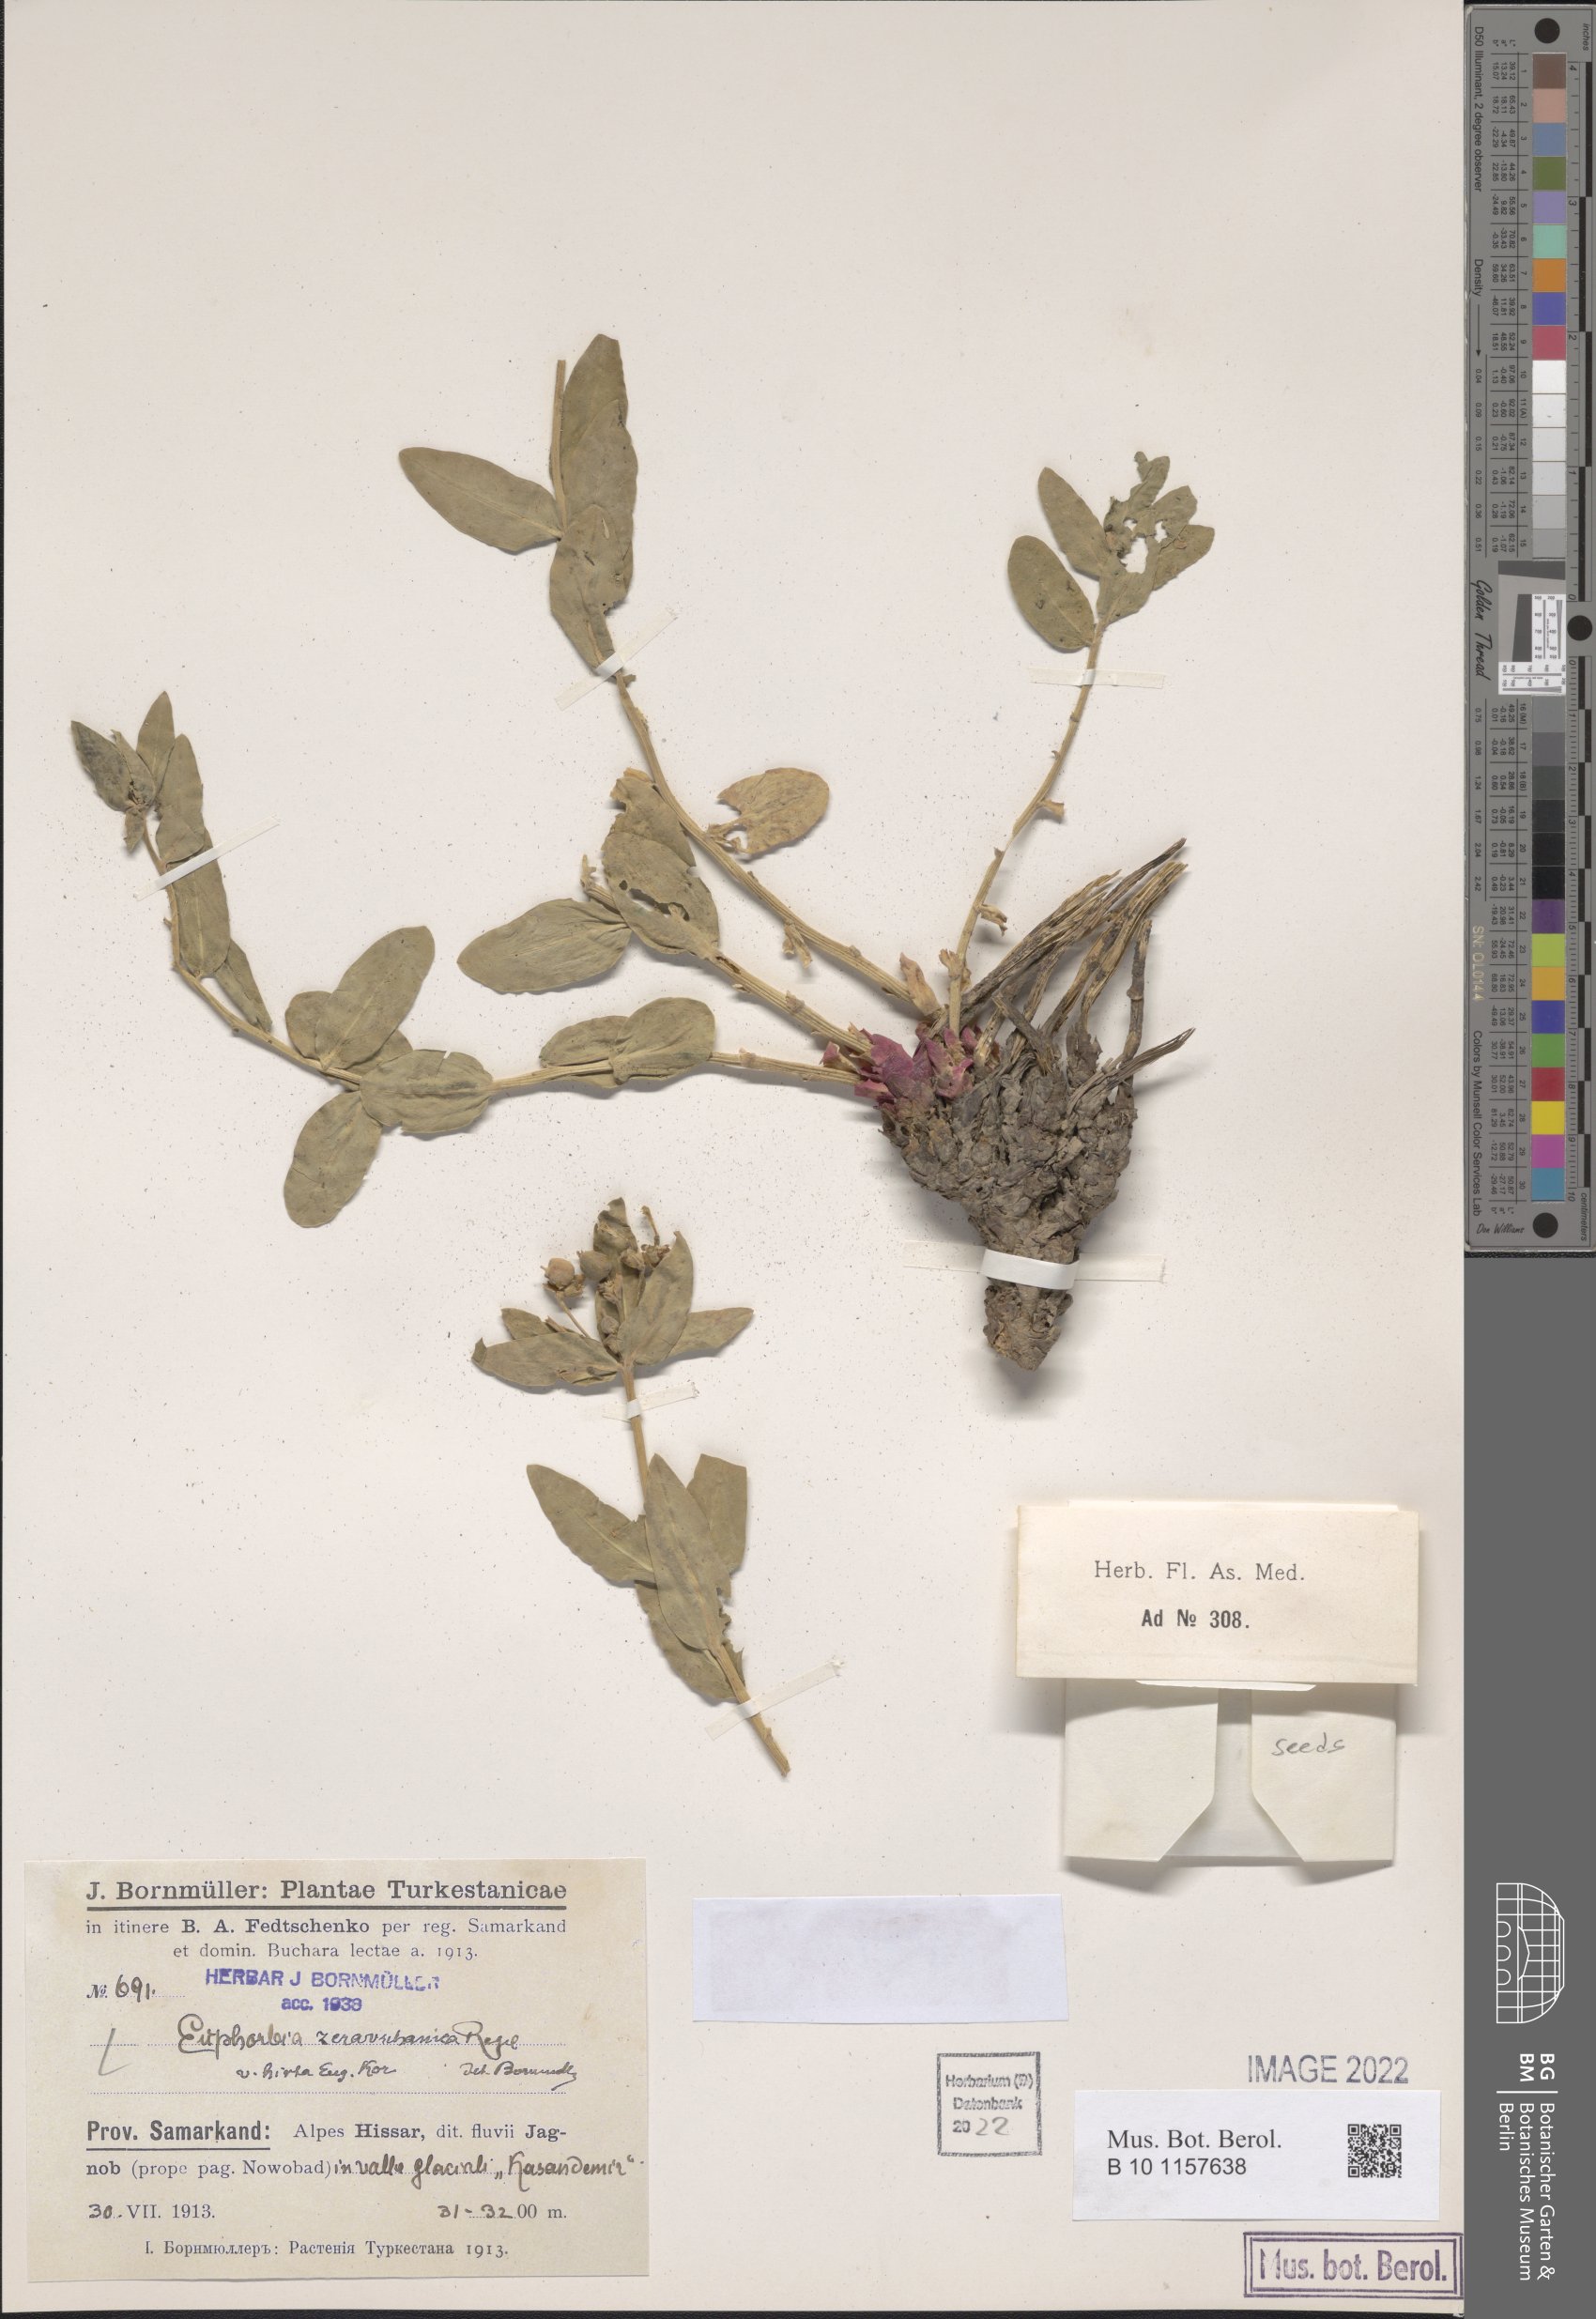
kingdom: Plantae
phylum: Tracheophyta
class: Magnoliopsida
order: Malpighiales
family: Euphorbiaceae
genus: Euphorbia
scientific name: Euphorbia sarawschanica
